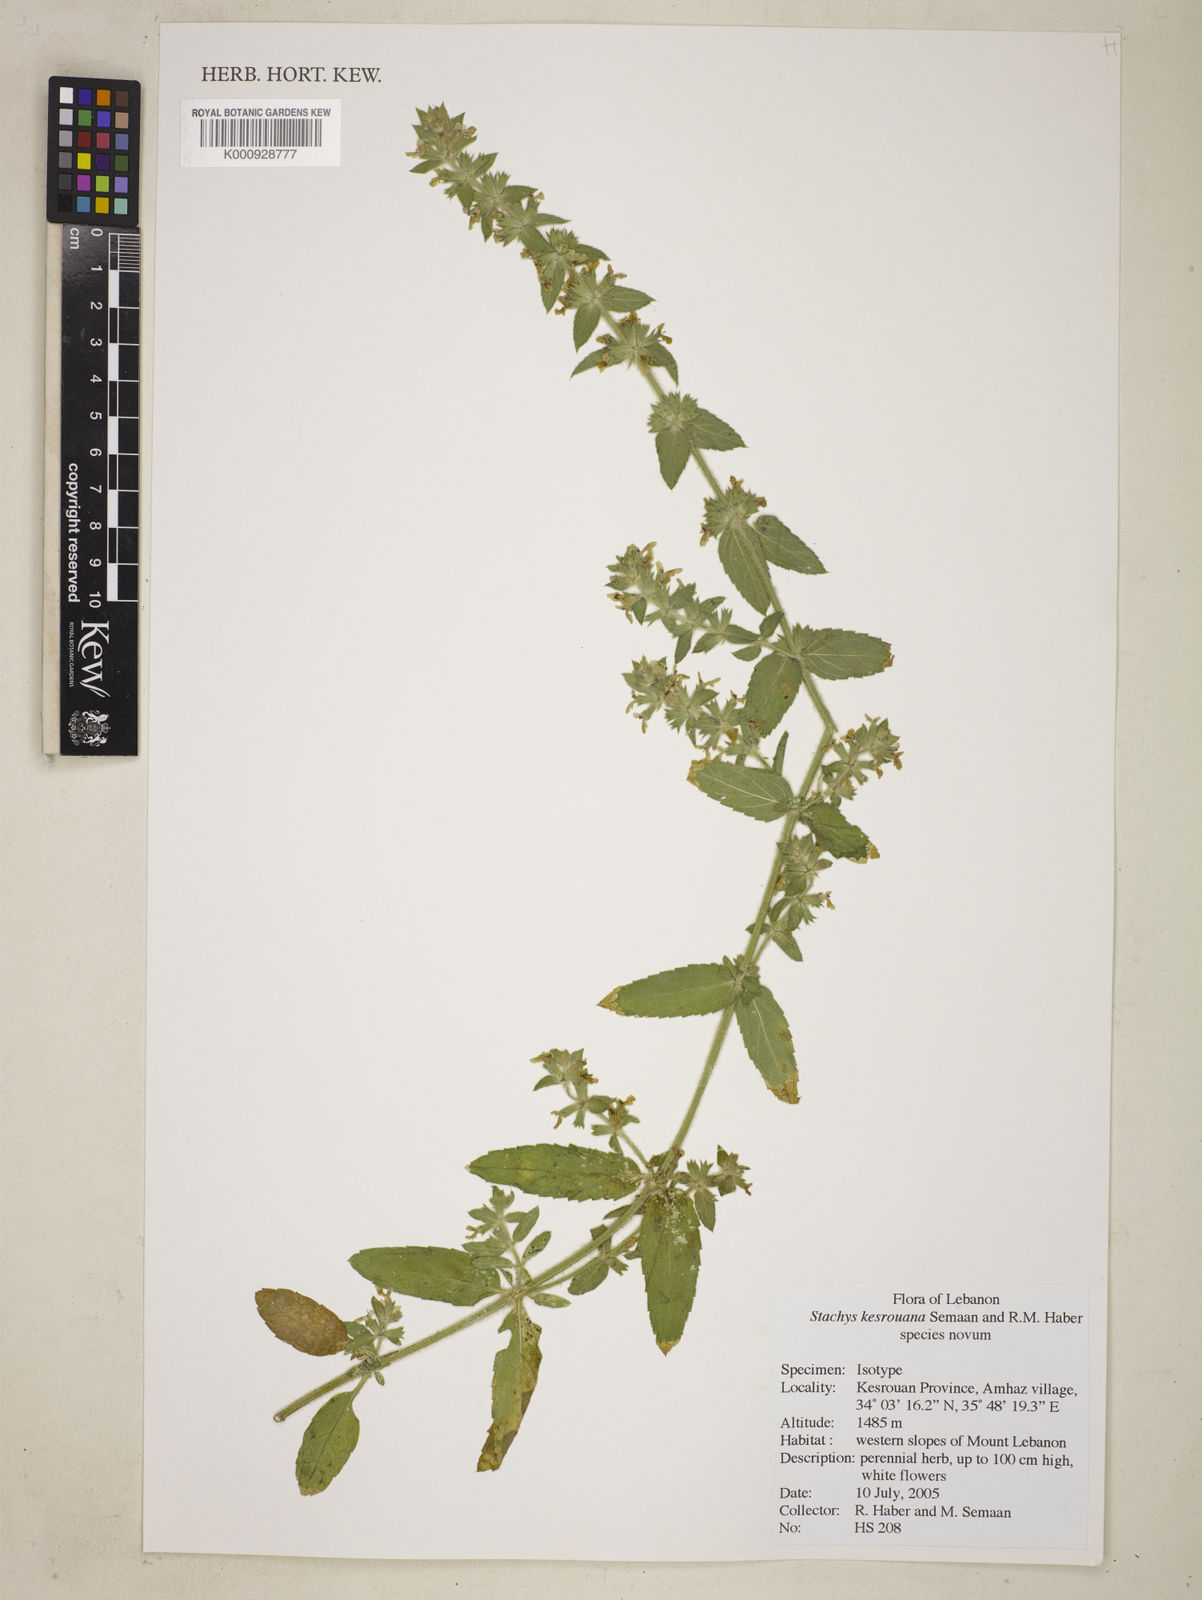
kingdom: Plantae
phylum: Tracheophyta
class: Magnoliopsida
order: Lamiales
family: Lamiaceae
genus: Stachys
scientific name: Stachys
